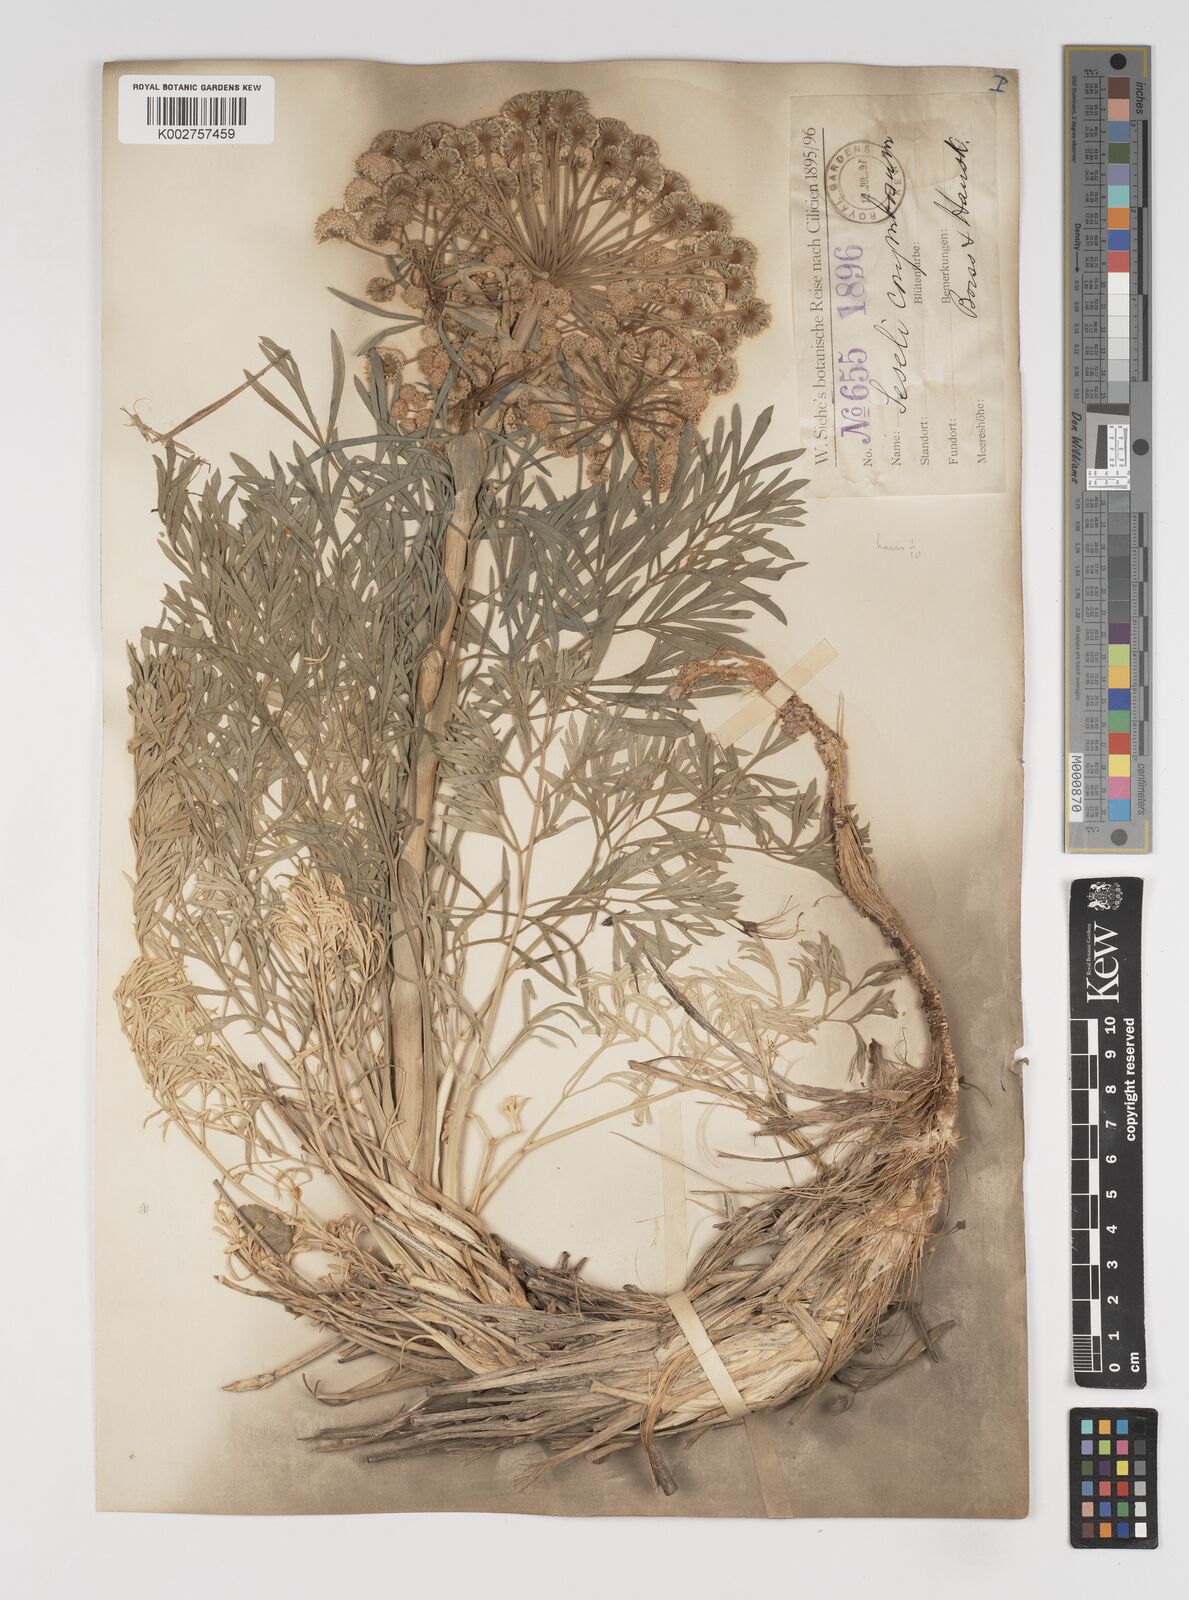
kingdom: Plantae
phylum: Tracheophyta
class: Magnoliopsida
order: Apiales
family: Apiaceae
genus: Seseli
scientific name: Seseli corymbosum
